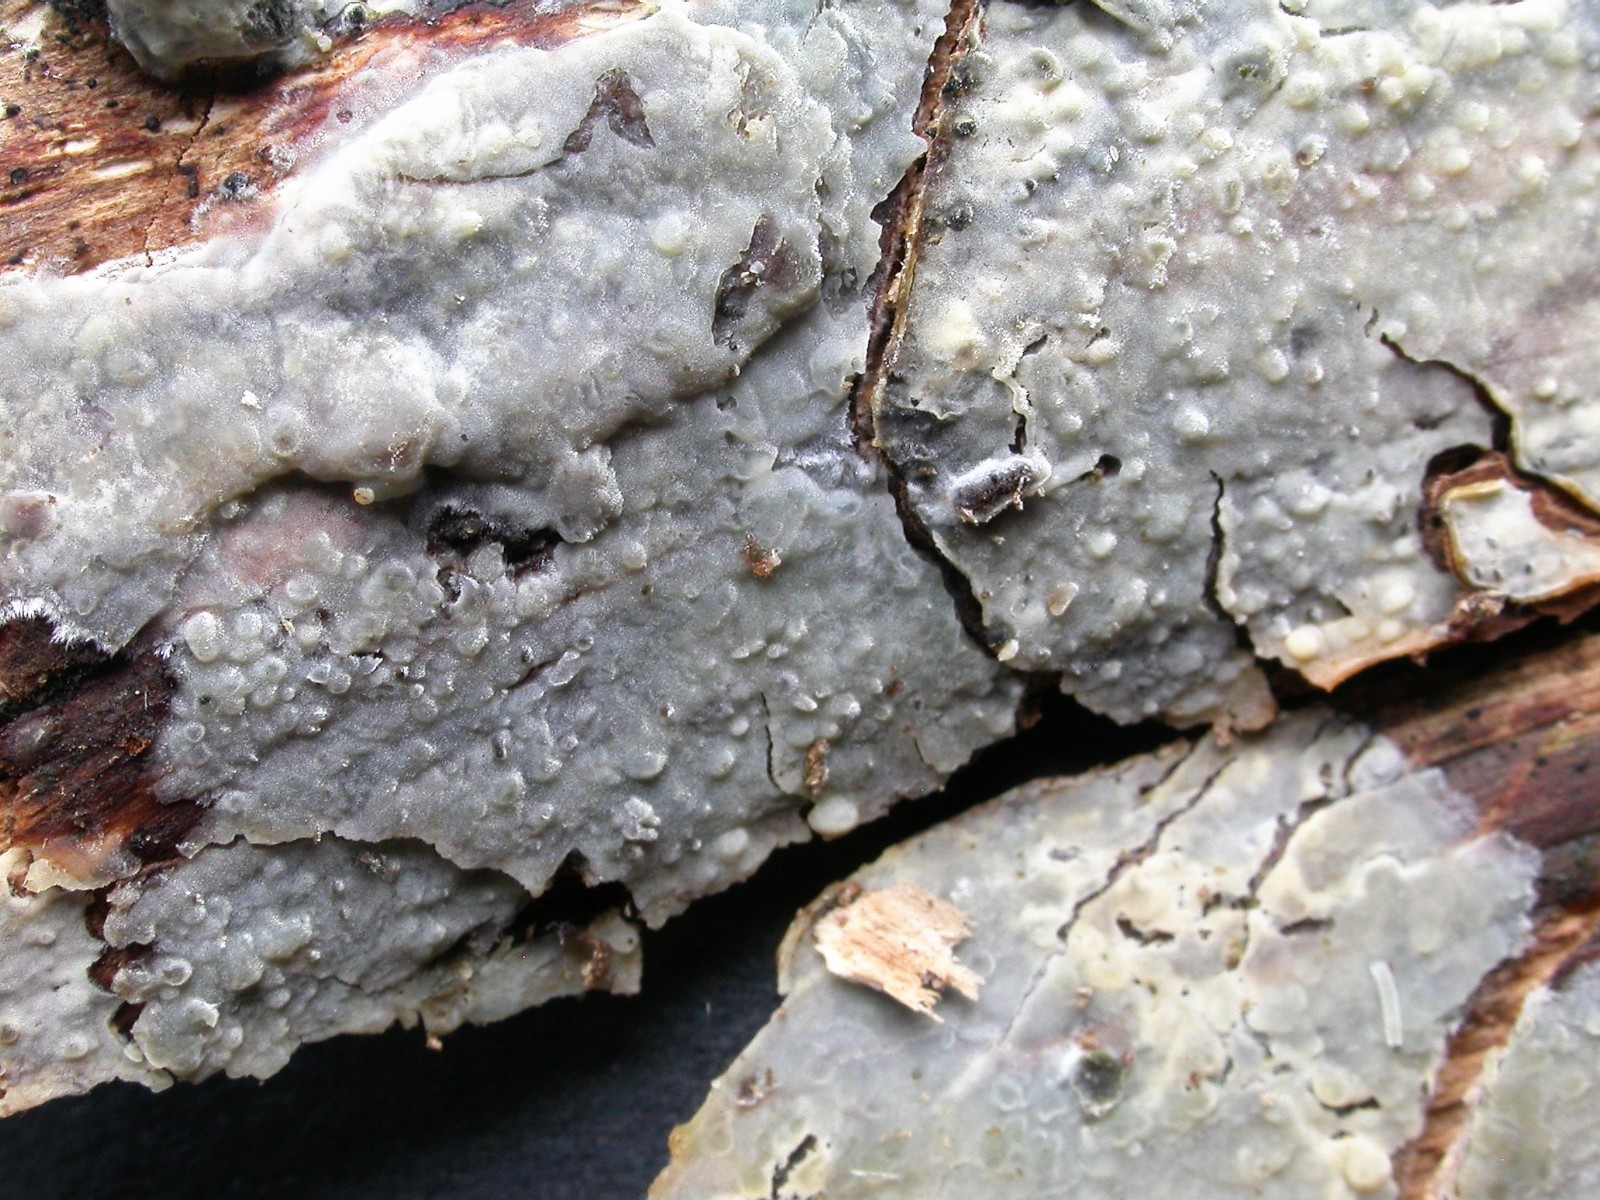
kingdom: Fungi
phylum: Basidiomycota
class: Agaricomycetes
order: Agaricales
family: Radulomycetaceae
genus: Radulomyces
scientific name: Radulomyces confluens
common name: glat naftalinskind
